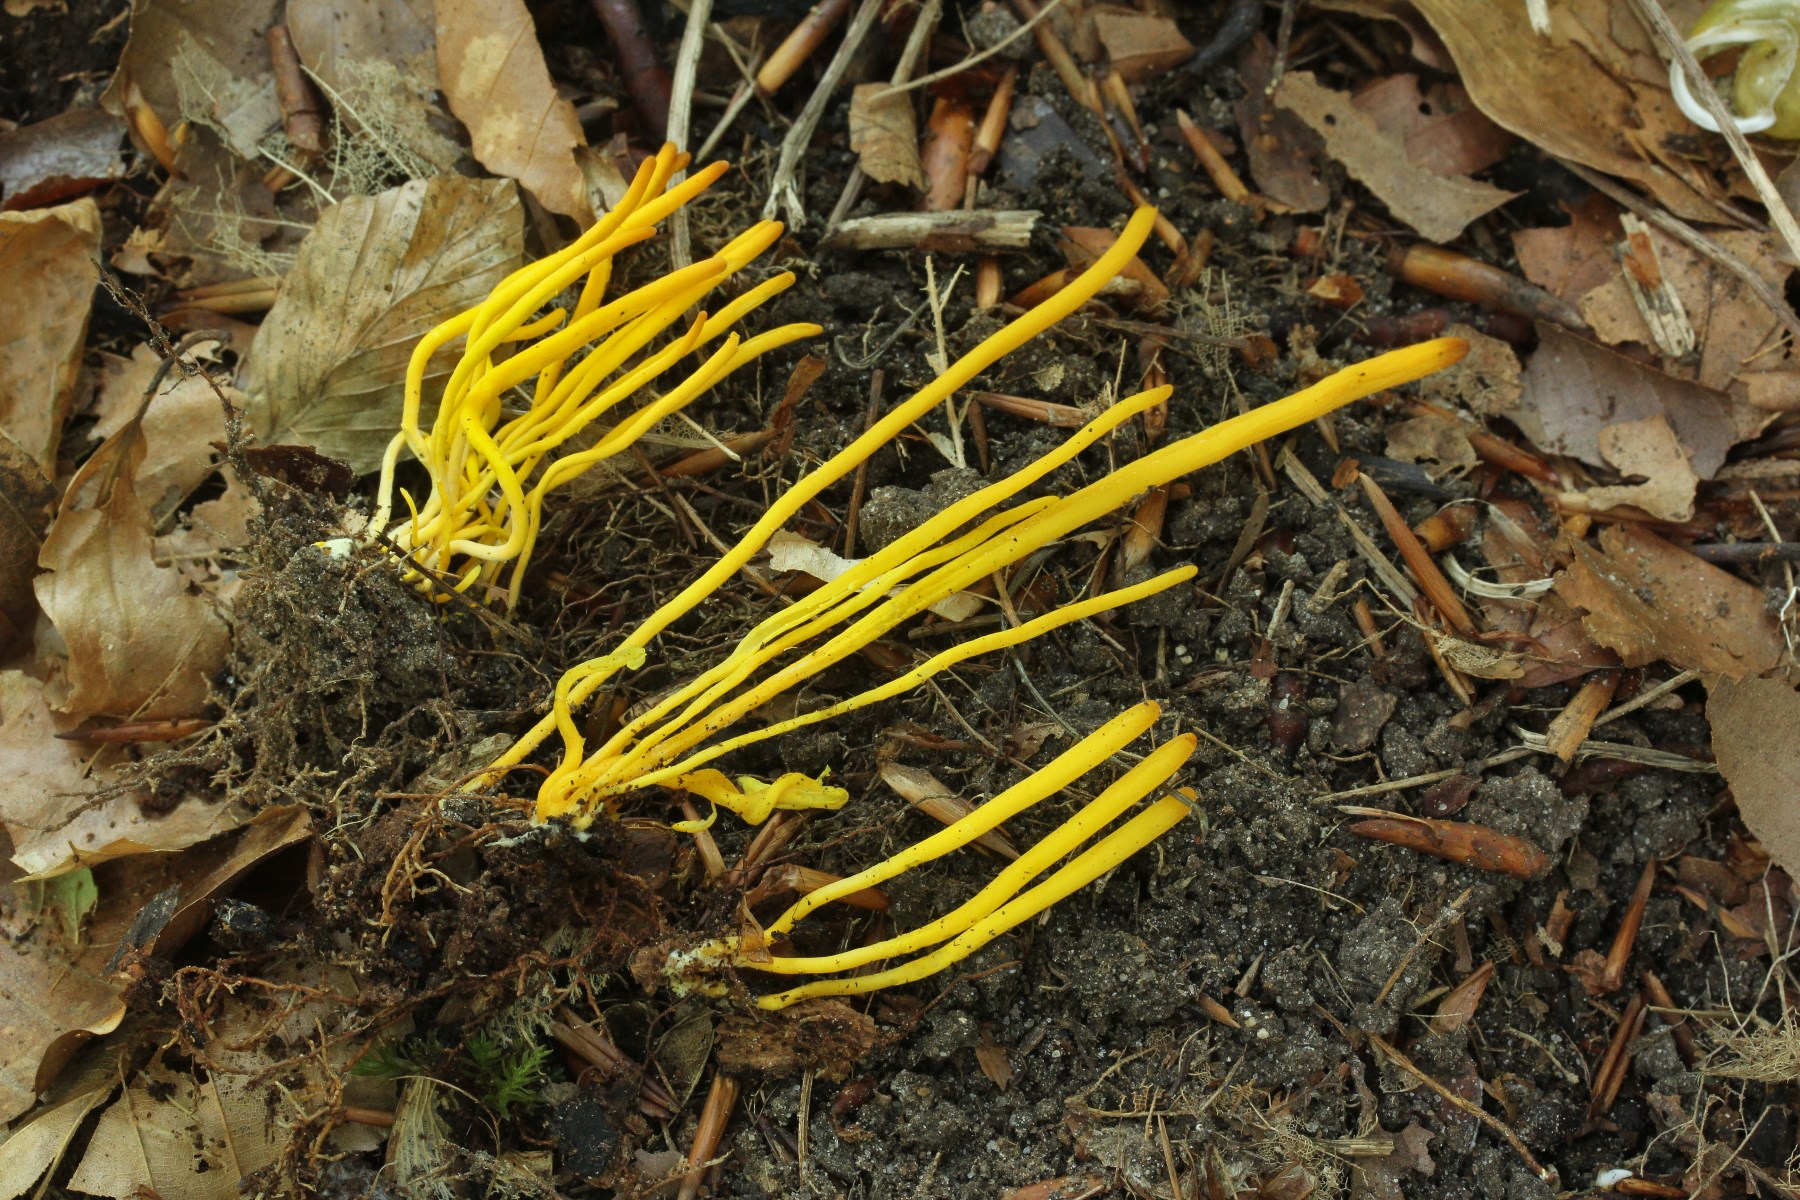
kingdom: Fungi
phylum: Basidiomycota
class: Agaricomycetes
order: Agaricales
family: Clavariaceae
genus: Clavulinopsis
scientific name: Clavulinopsis helvola
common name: orangegul køllesvamp
